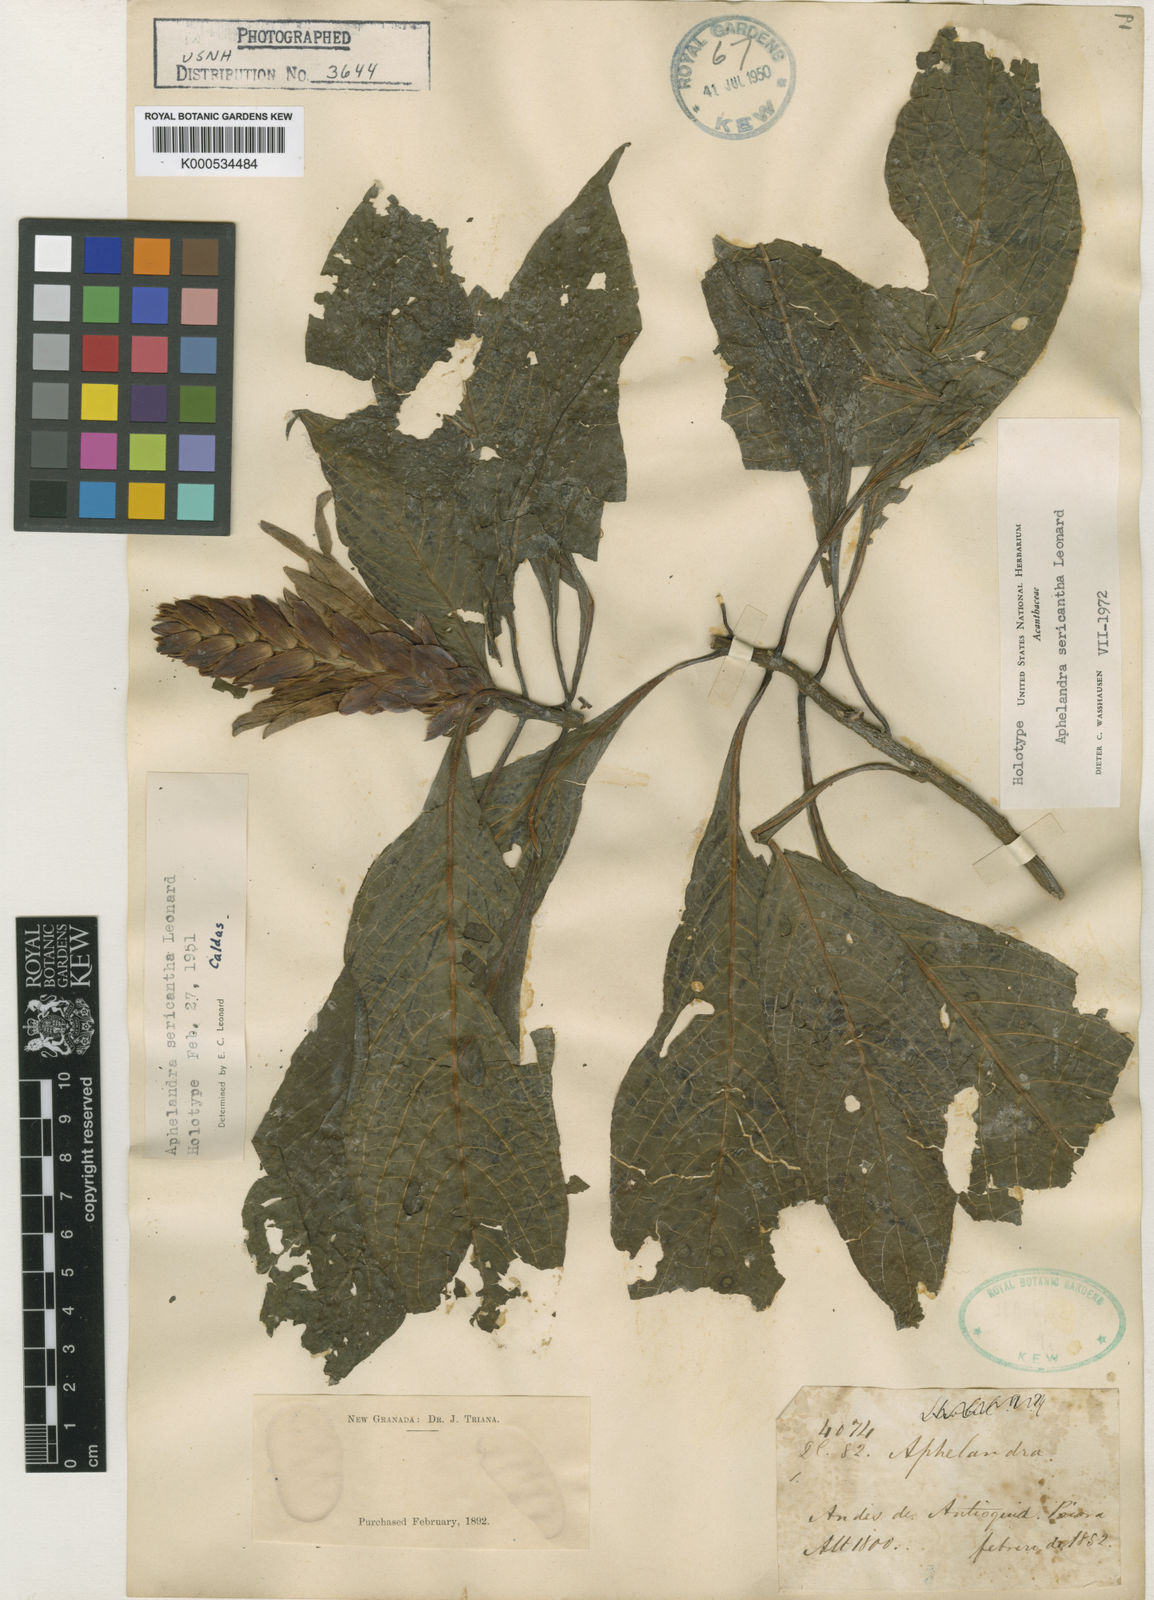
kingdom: Plantae
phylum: Tracheophyta
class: Magnoliopsida
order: Lamiales
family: Acanthaceae
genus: Aphelandra
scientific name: Aphelandra sericantha
